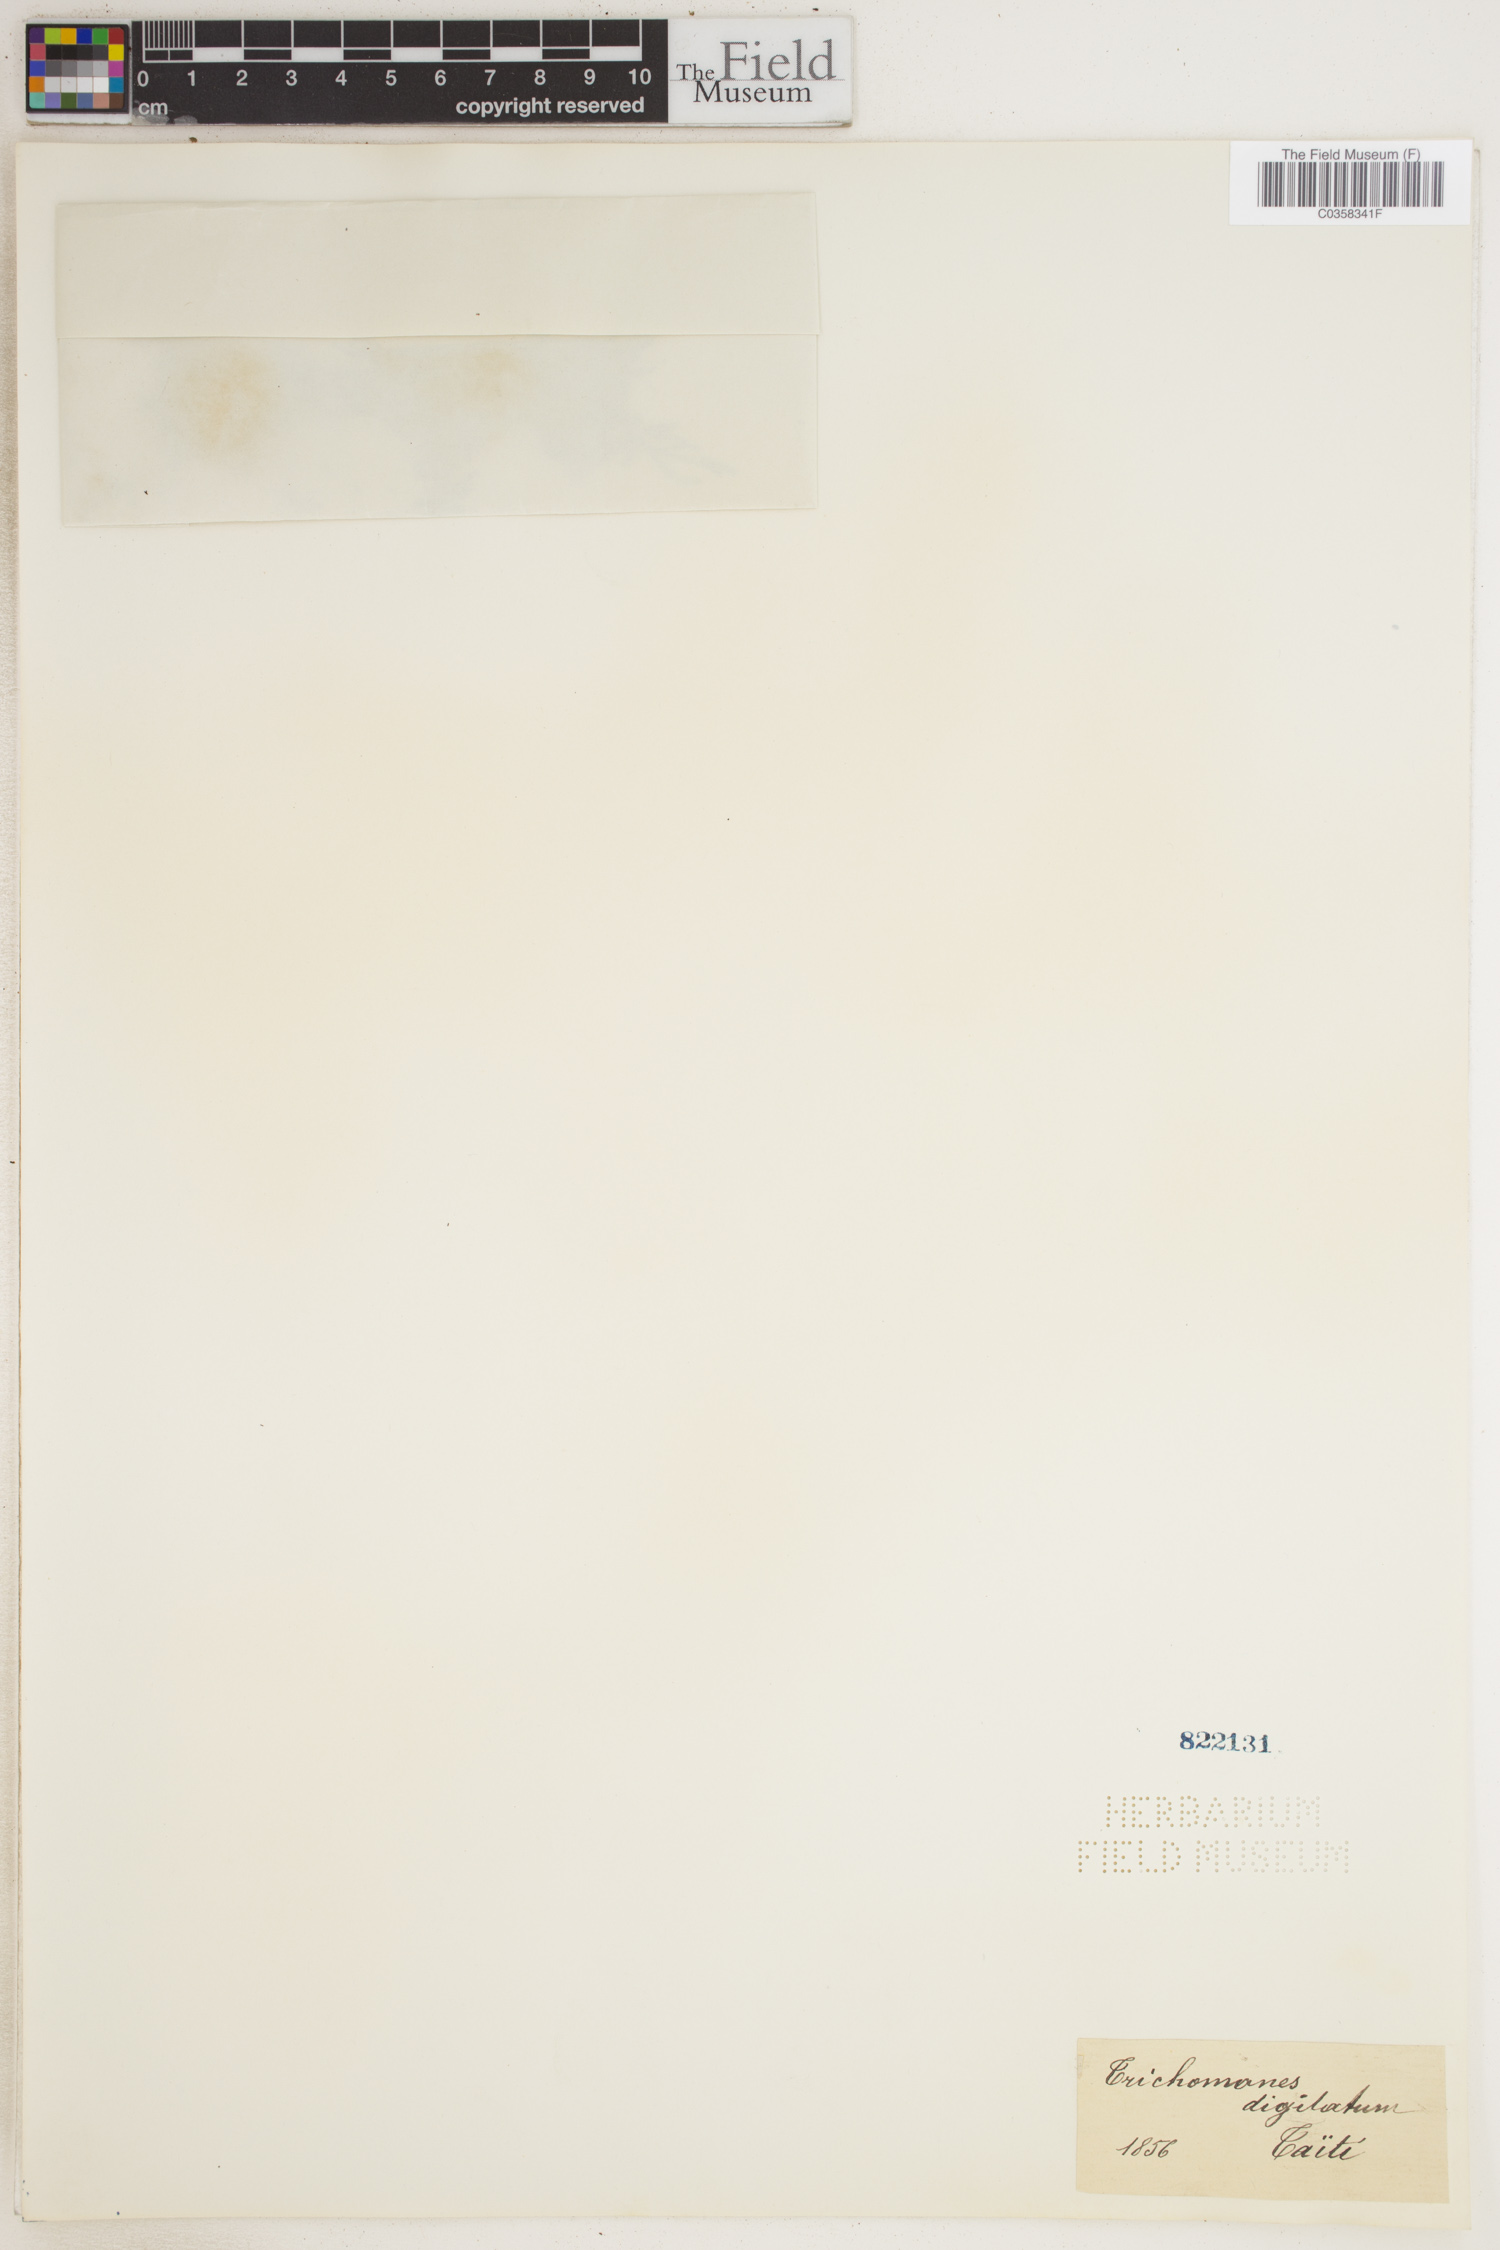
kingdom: Plantae
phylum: Tracheophyta
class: Polypodiopsida
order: Hymenophyllales
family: Hymenophyllaceae
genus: Hymenophyllum
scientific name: Hymenophyllum digitatum
